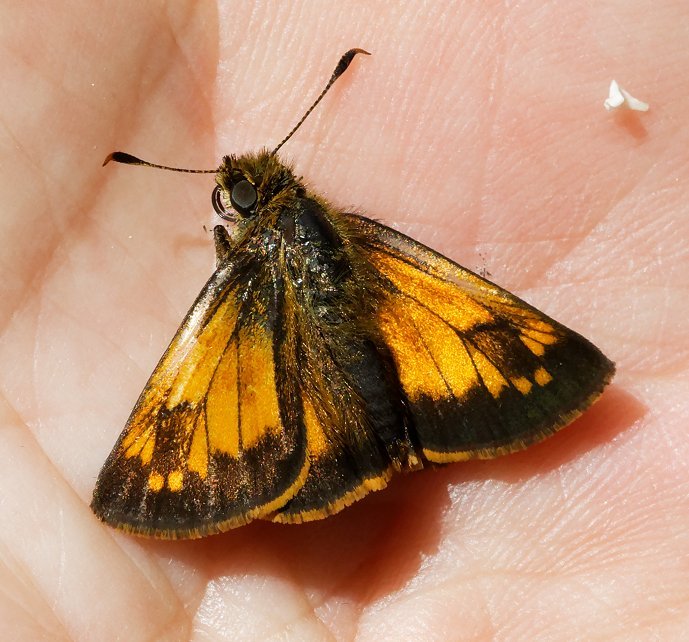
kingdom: Animalia
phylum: Arthropoda
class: Insecta
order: Lepidoptera
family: Hesperiidae
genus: Lon
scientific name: Lon hobomok
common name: Hobomok Skipper
